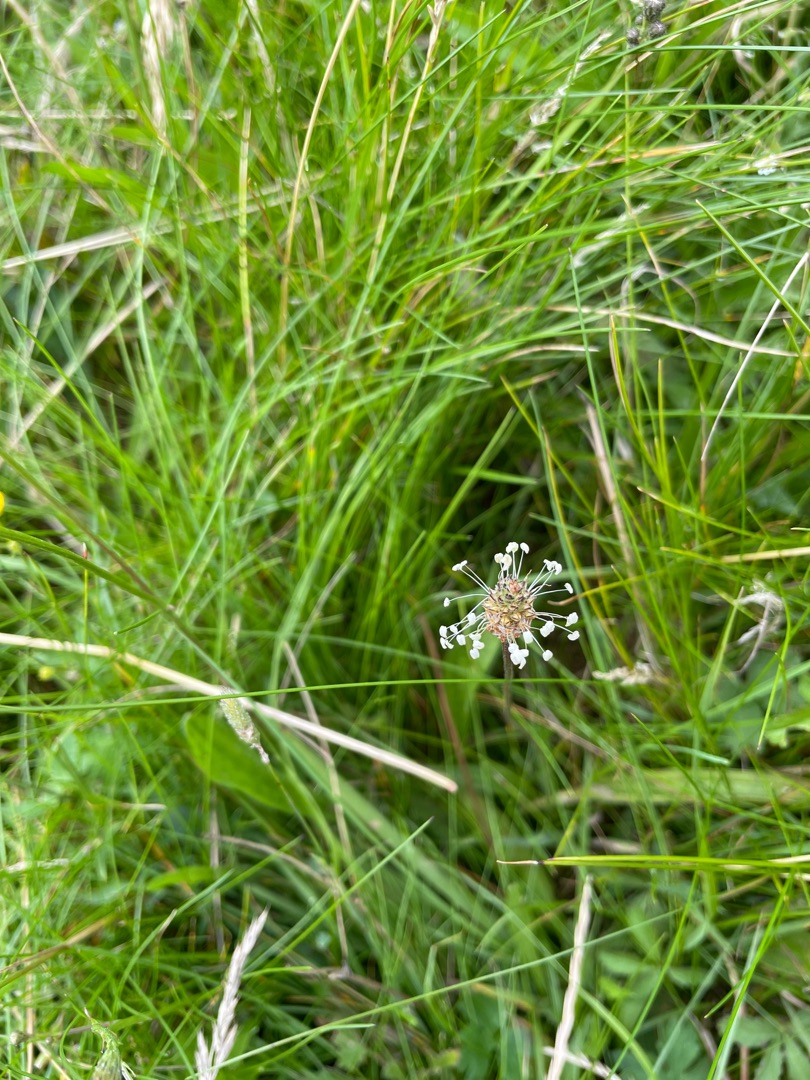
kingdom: Plantae
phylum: Tracheophyta
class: Magnoliopsida
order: Lamiales
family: Plantaginaceae
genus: Plantago
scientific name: Plantago lanceolata
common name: Lancet-vejbred
